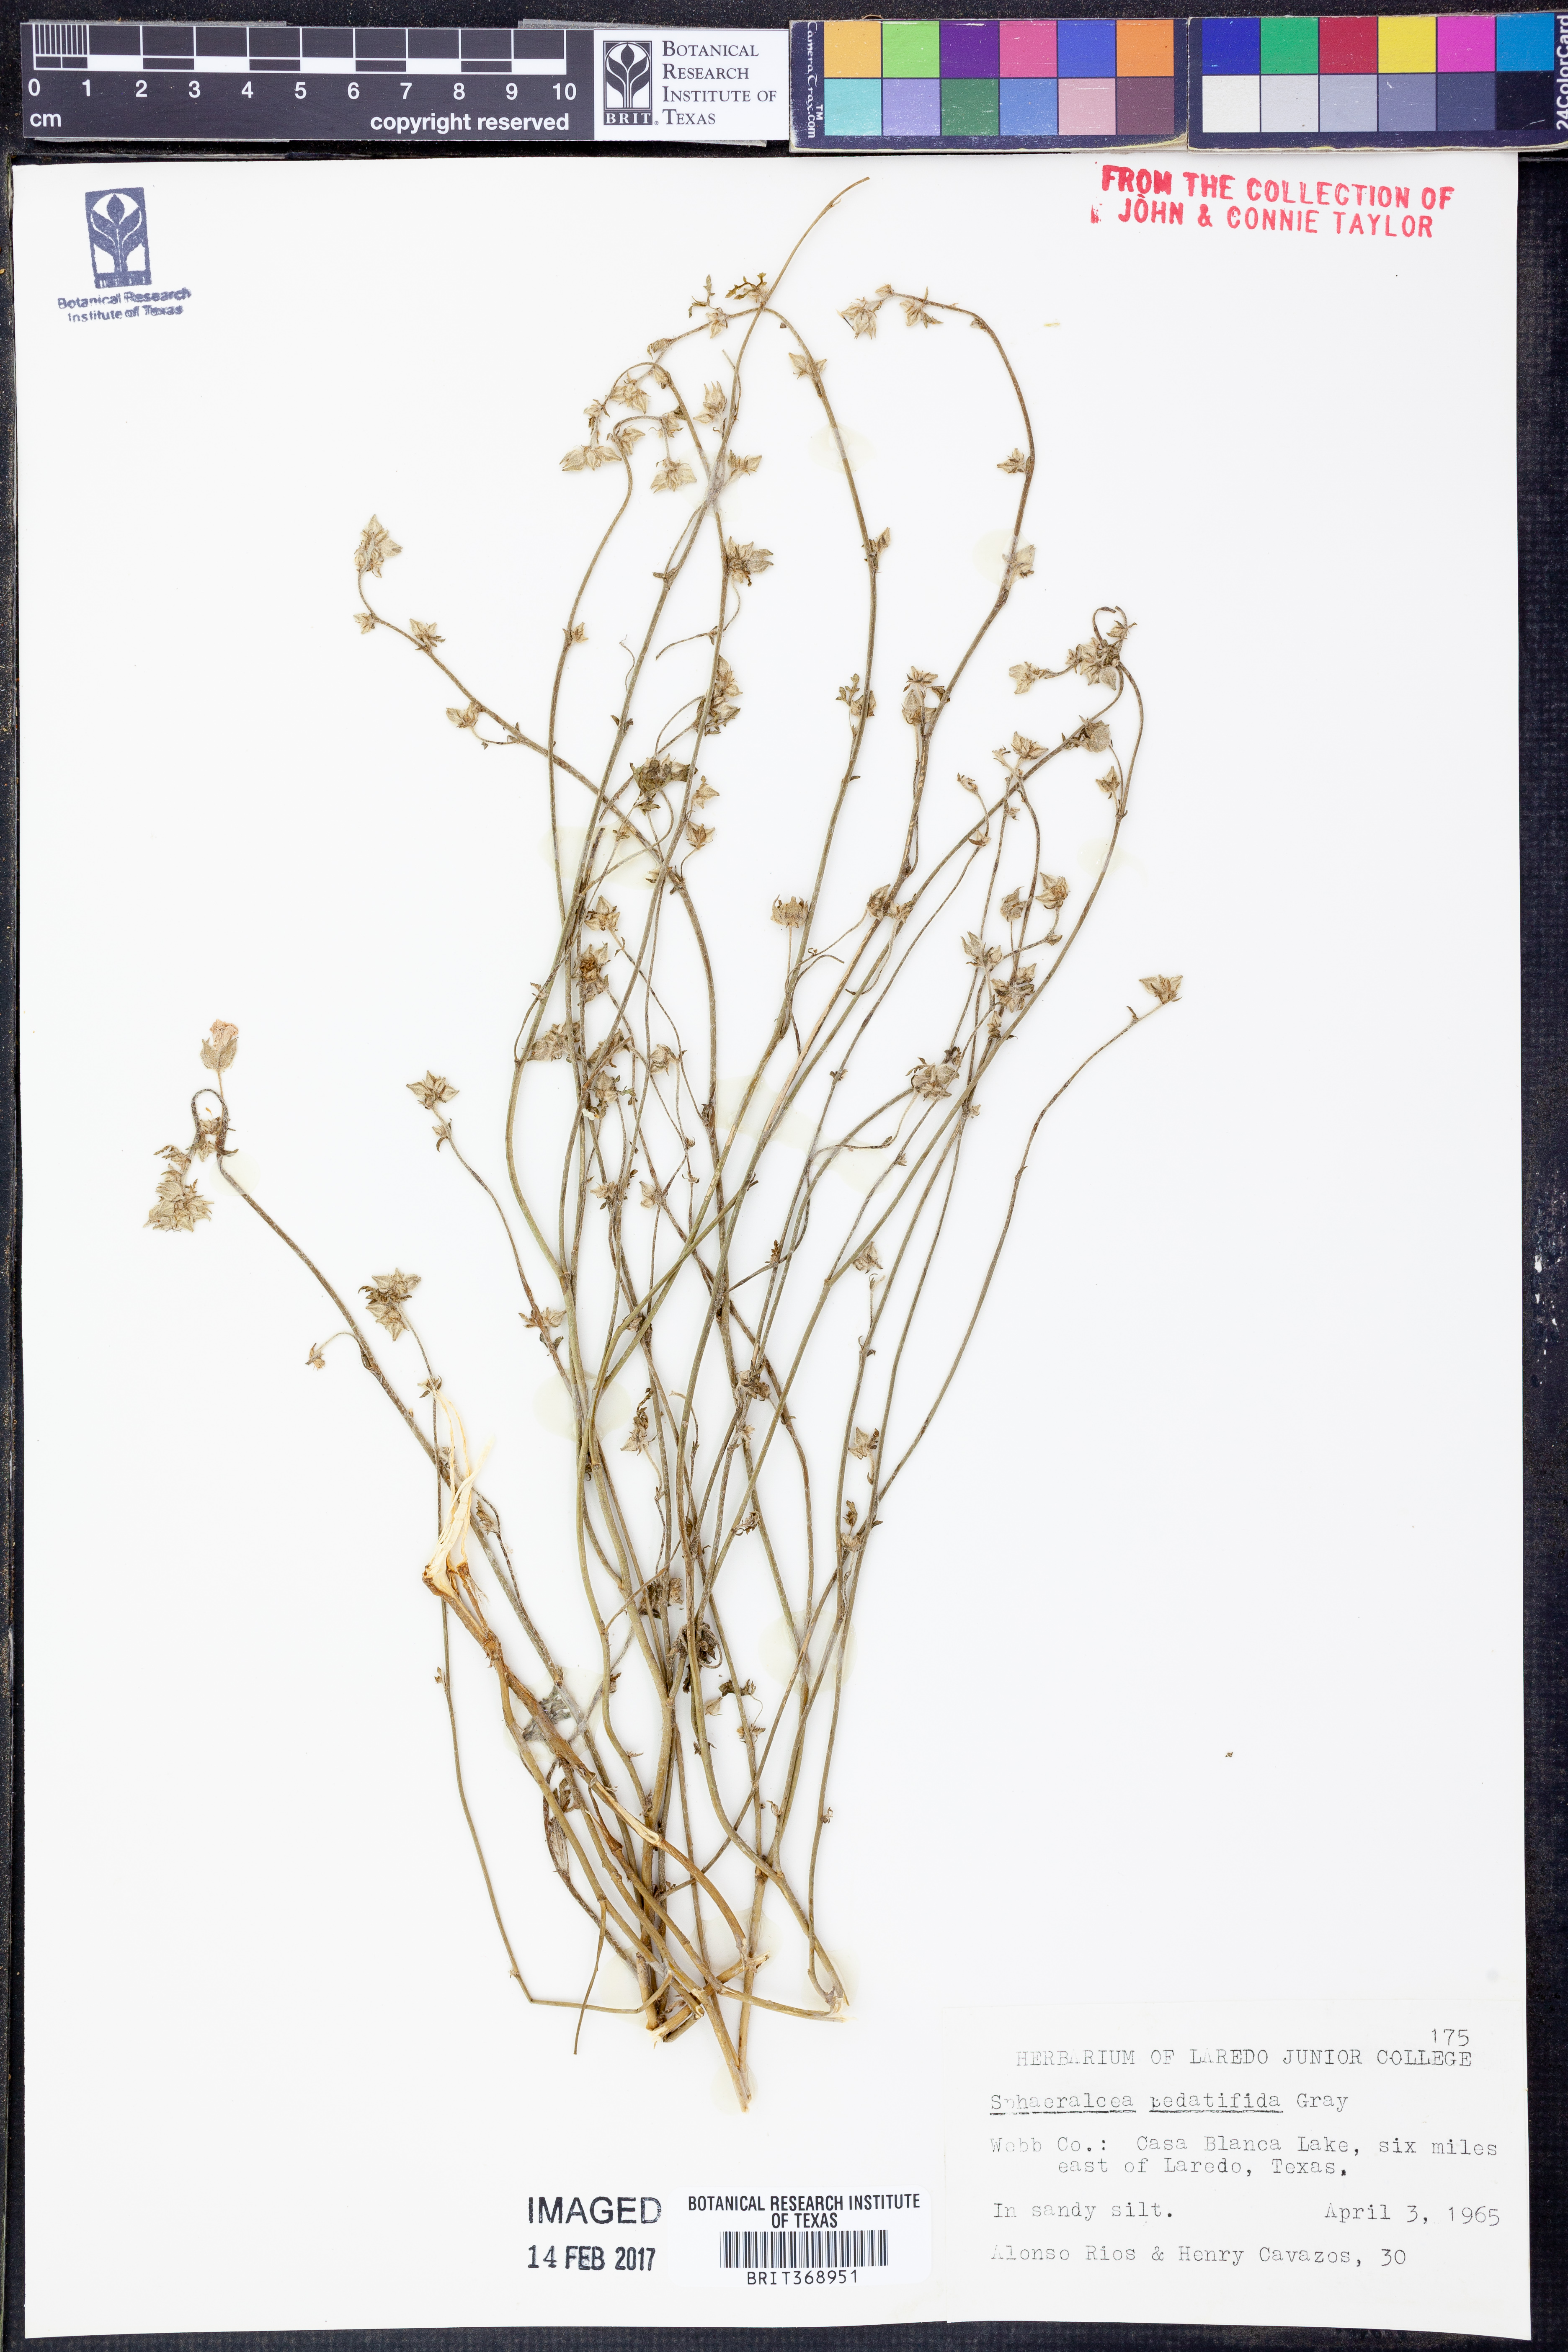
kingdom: Plantae
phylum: Tracheophyta
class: Magnoliopsida
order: Malvales
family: Malvaceae
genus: Sphaeralcea
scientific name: Sphaeralcea pedatifida
